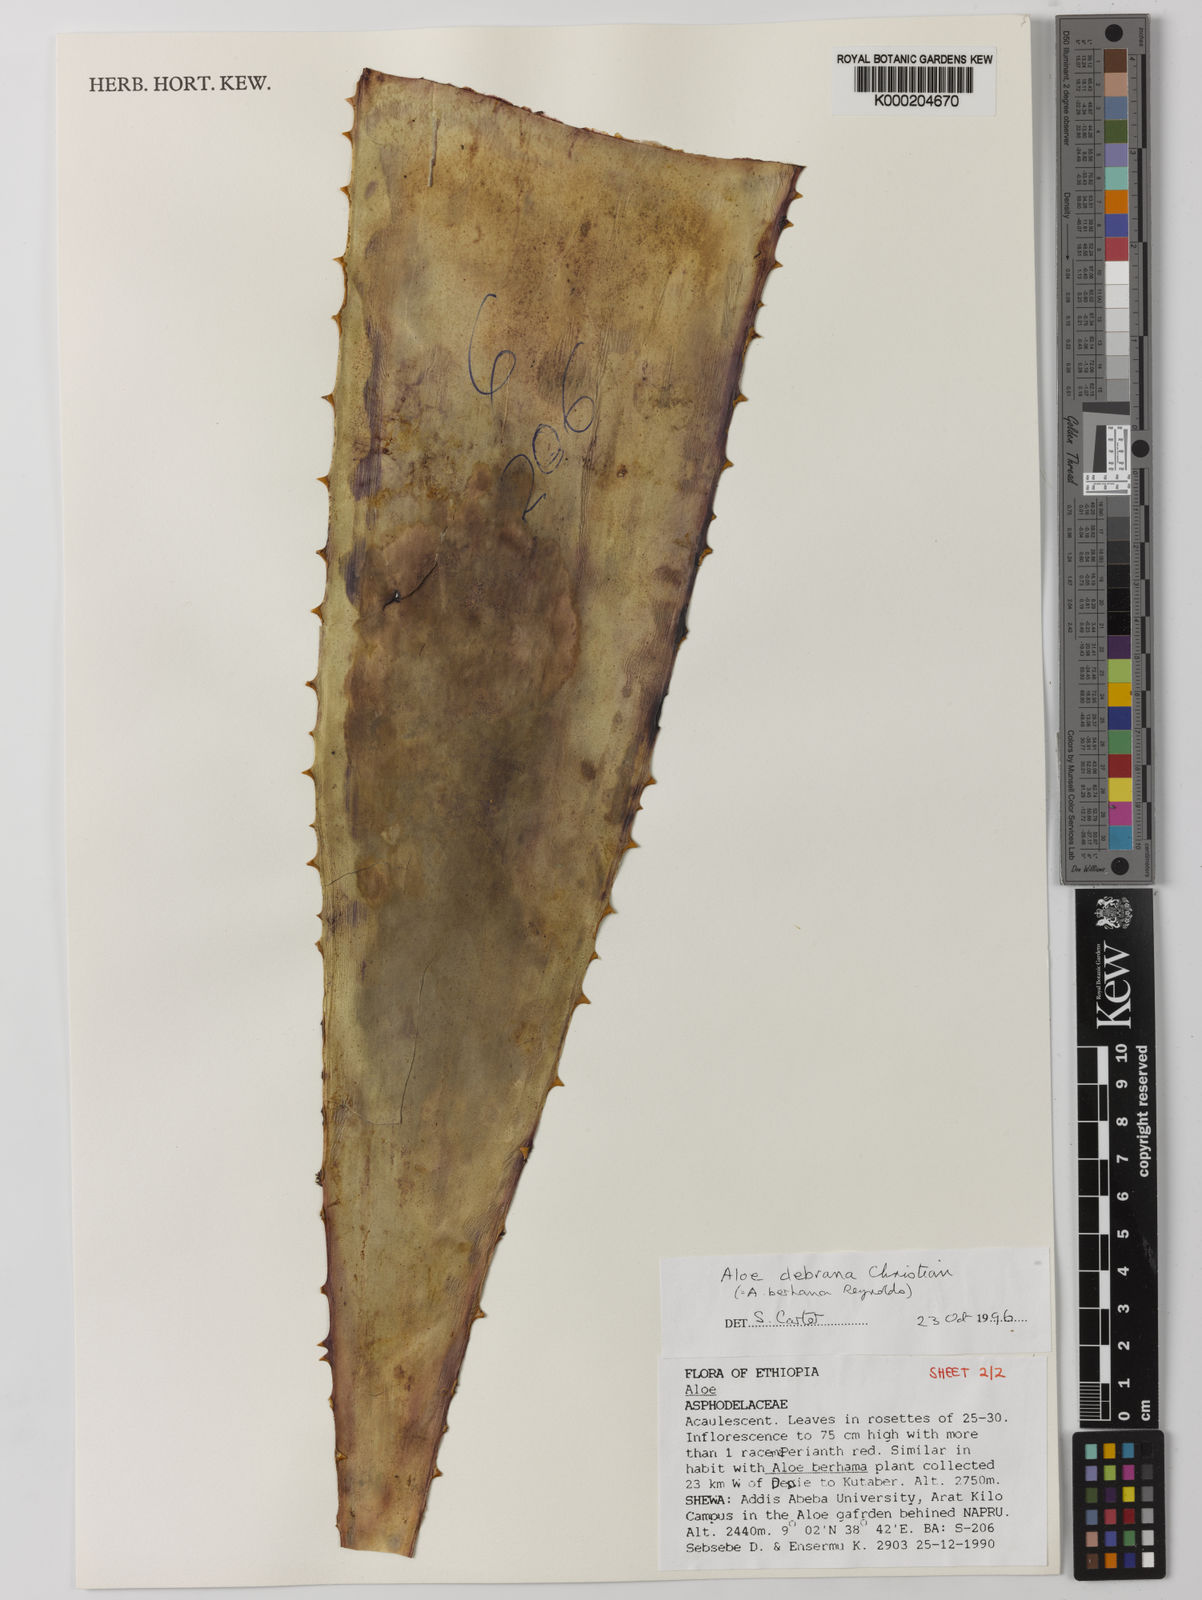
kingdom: Plantae
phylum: Tracheophyta
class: Liliopsida
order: Asparagales
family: Asphodelaceae
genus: Aloe
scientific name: Aloe debrana
